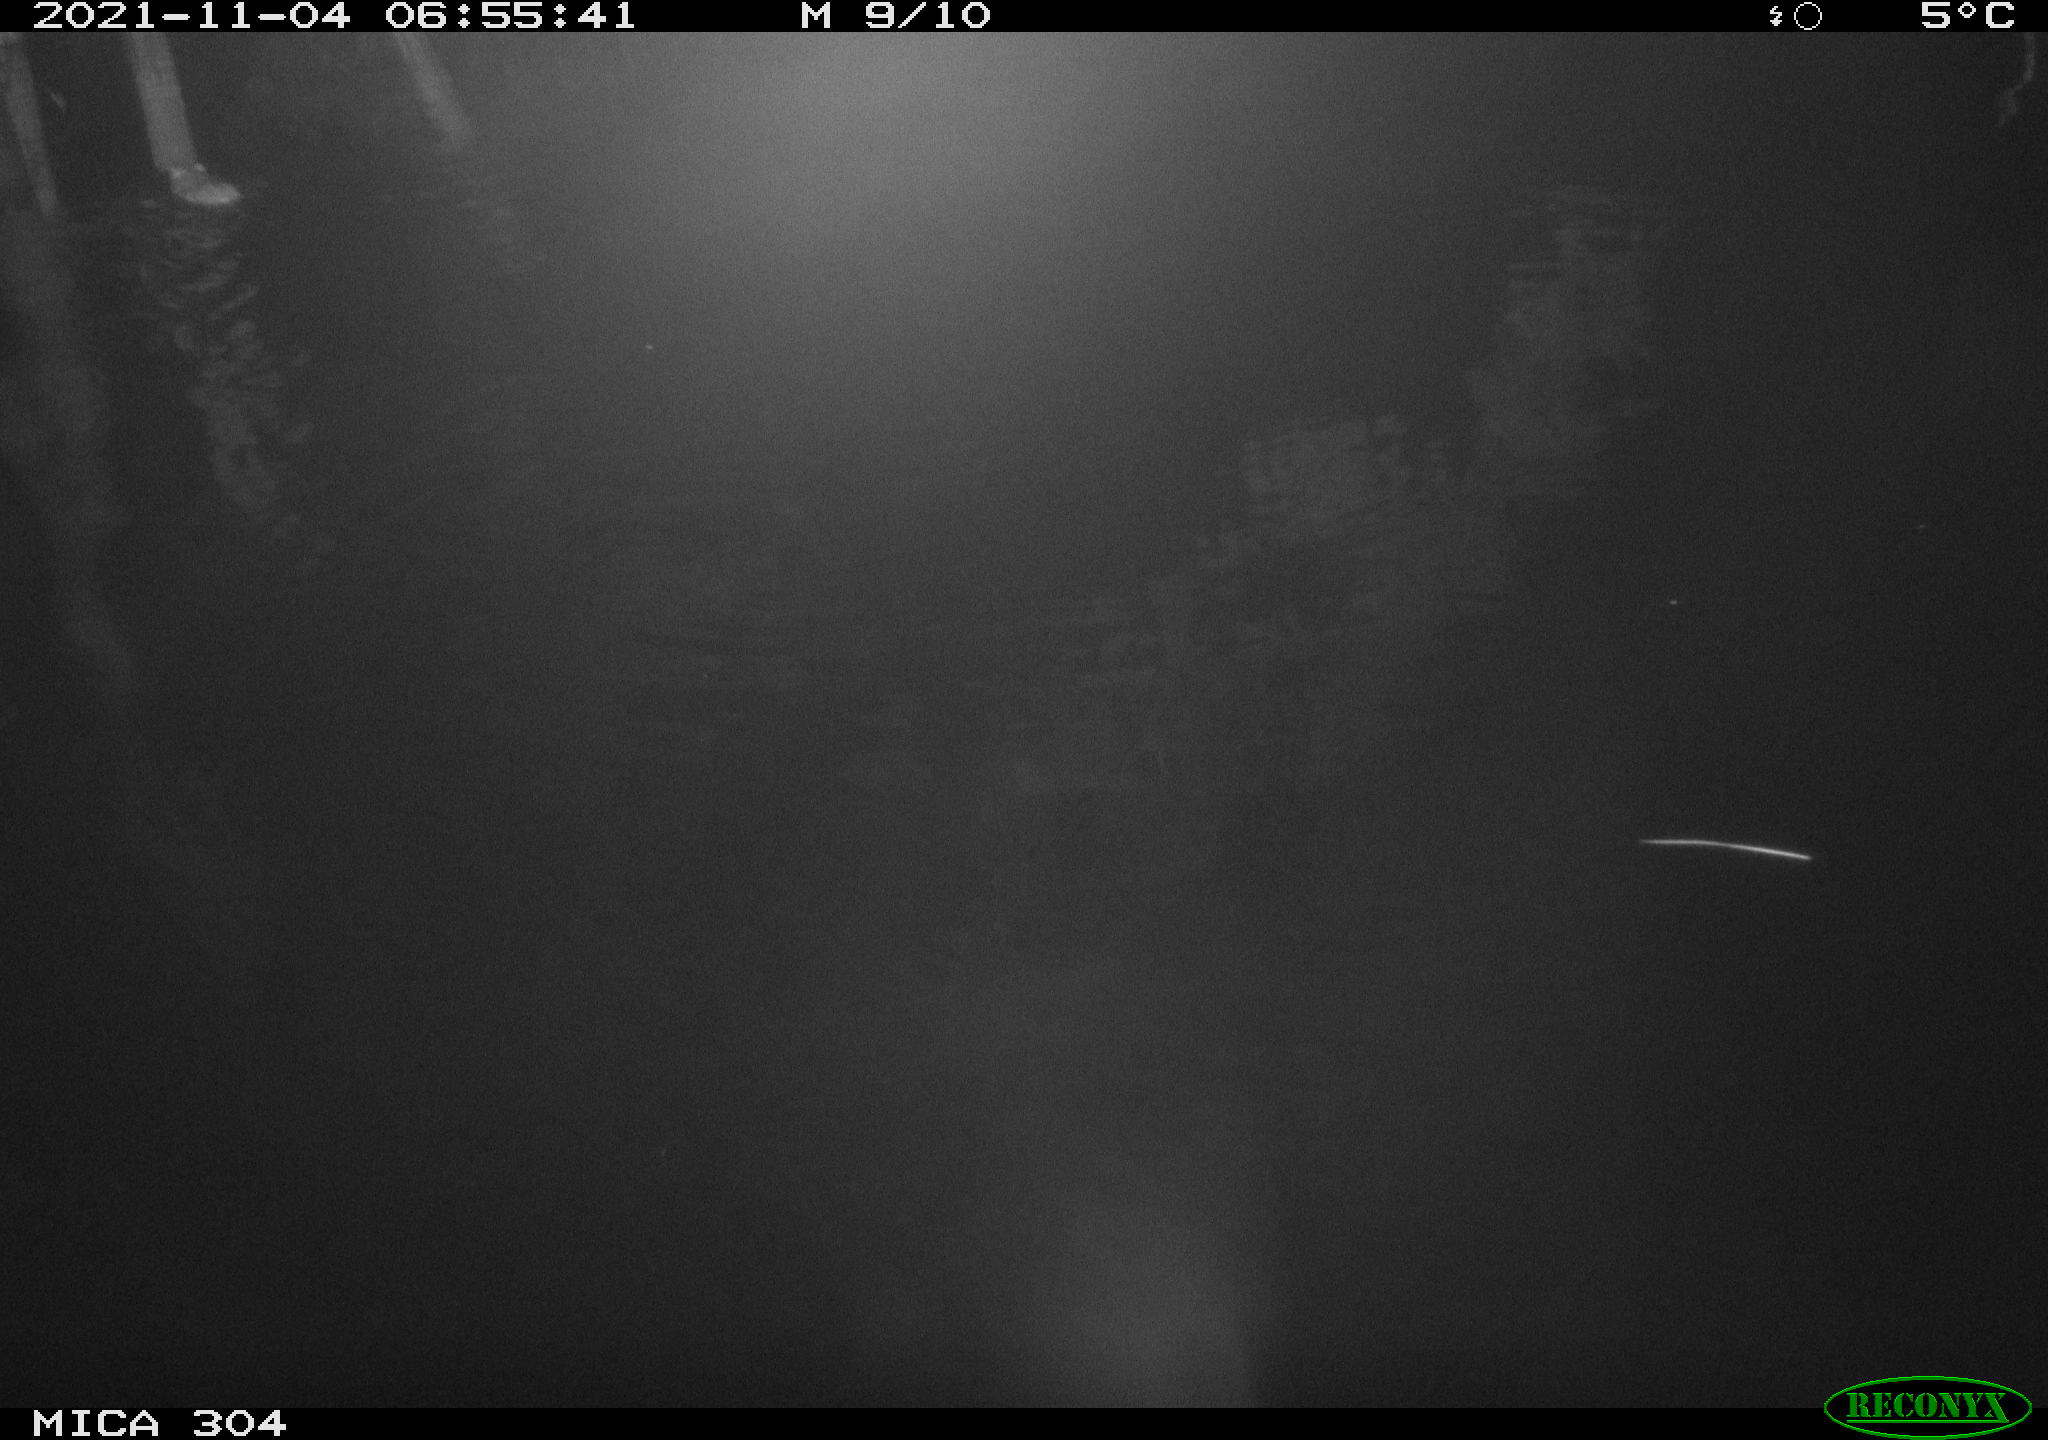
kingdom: Animalia
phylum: Chordata
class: Mammalia
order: Rodentia
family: Muridae
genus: Rattus
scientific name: Rattus norvegicus
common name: Brown rat
